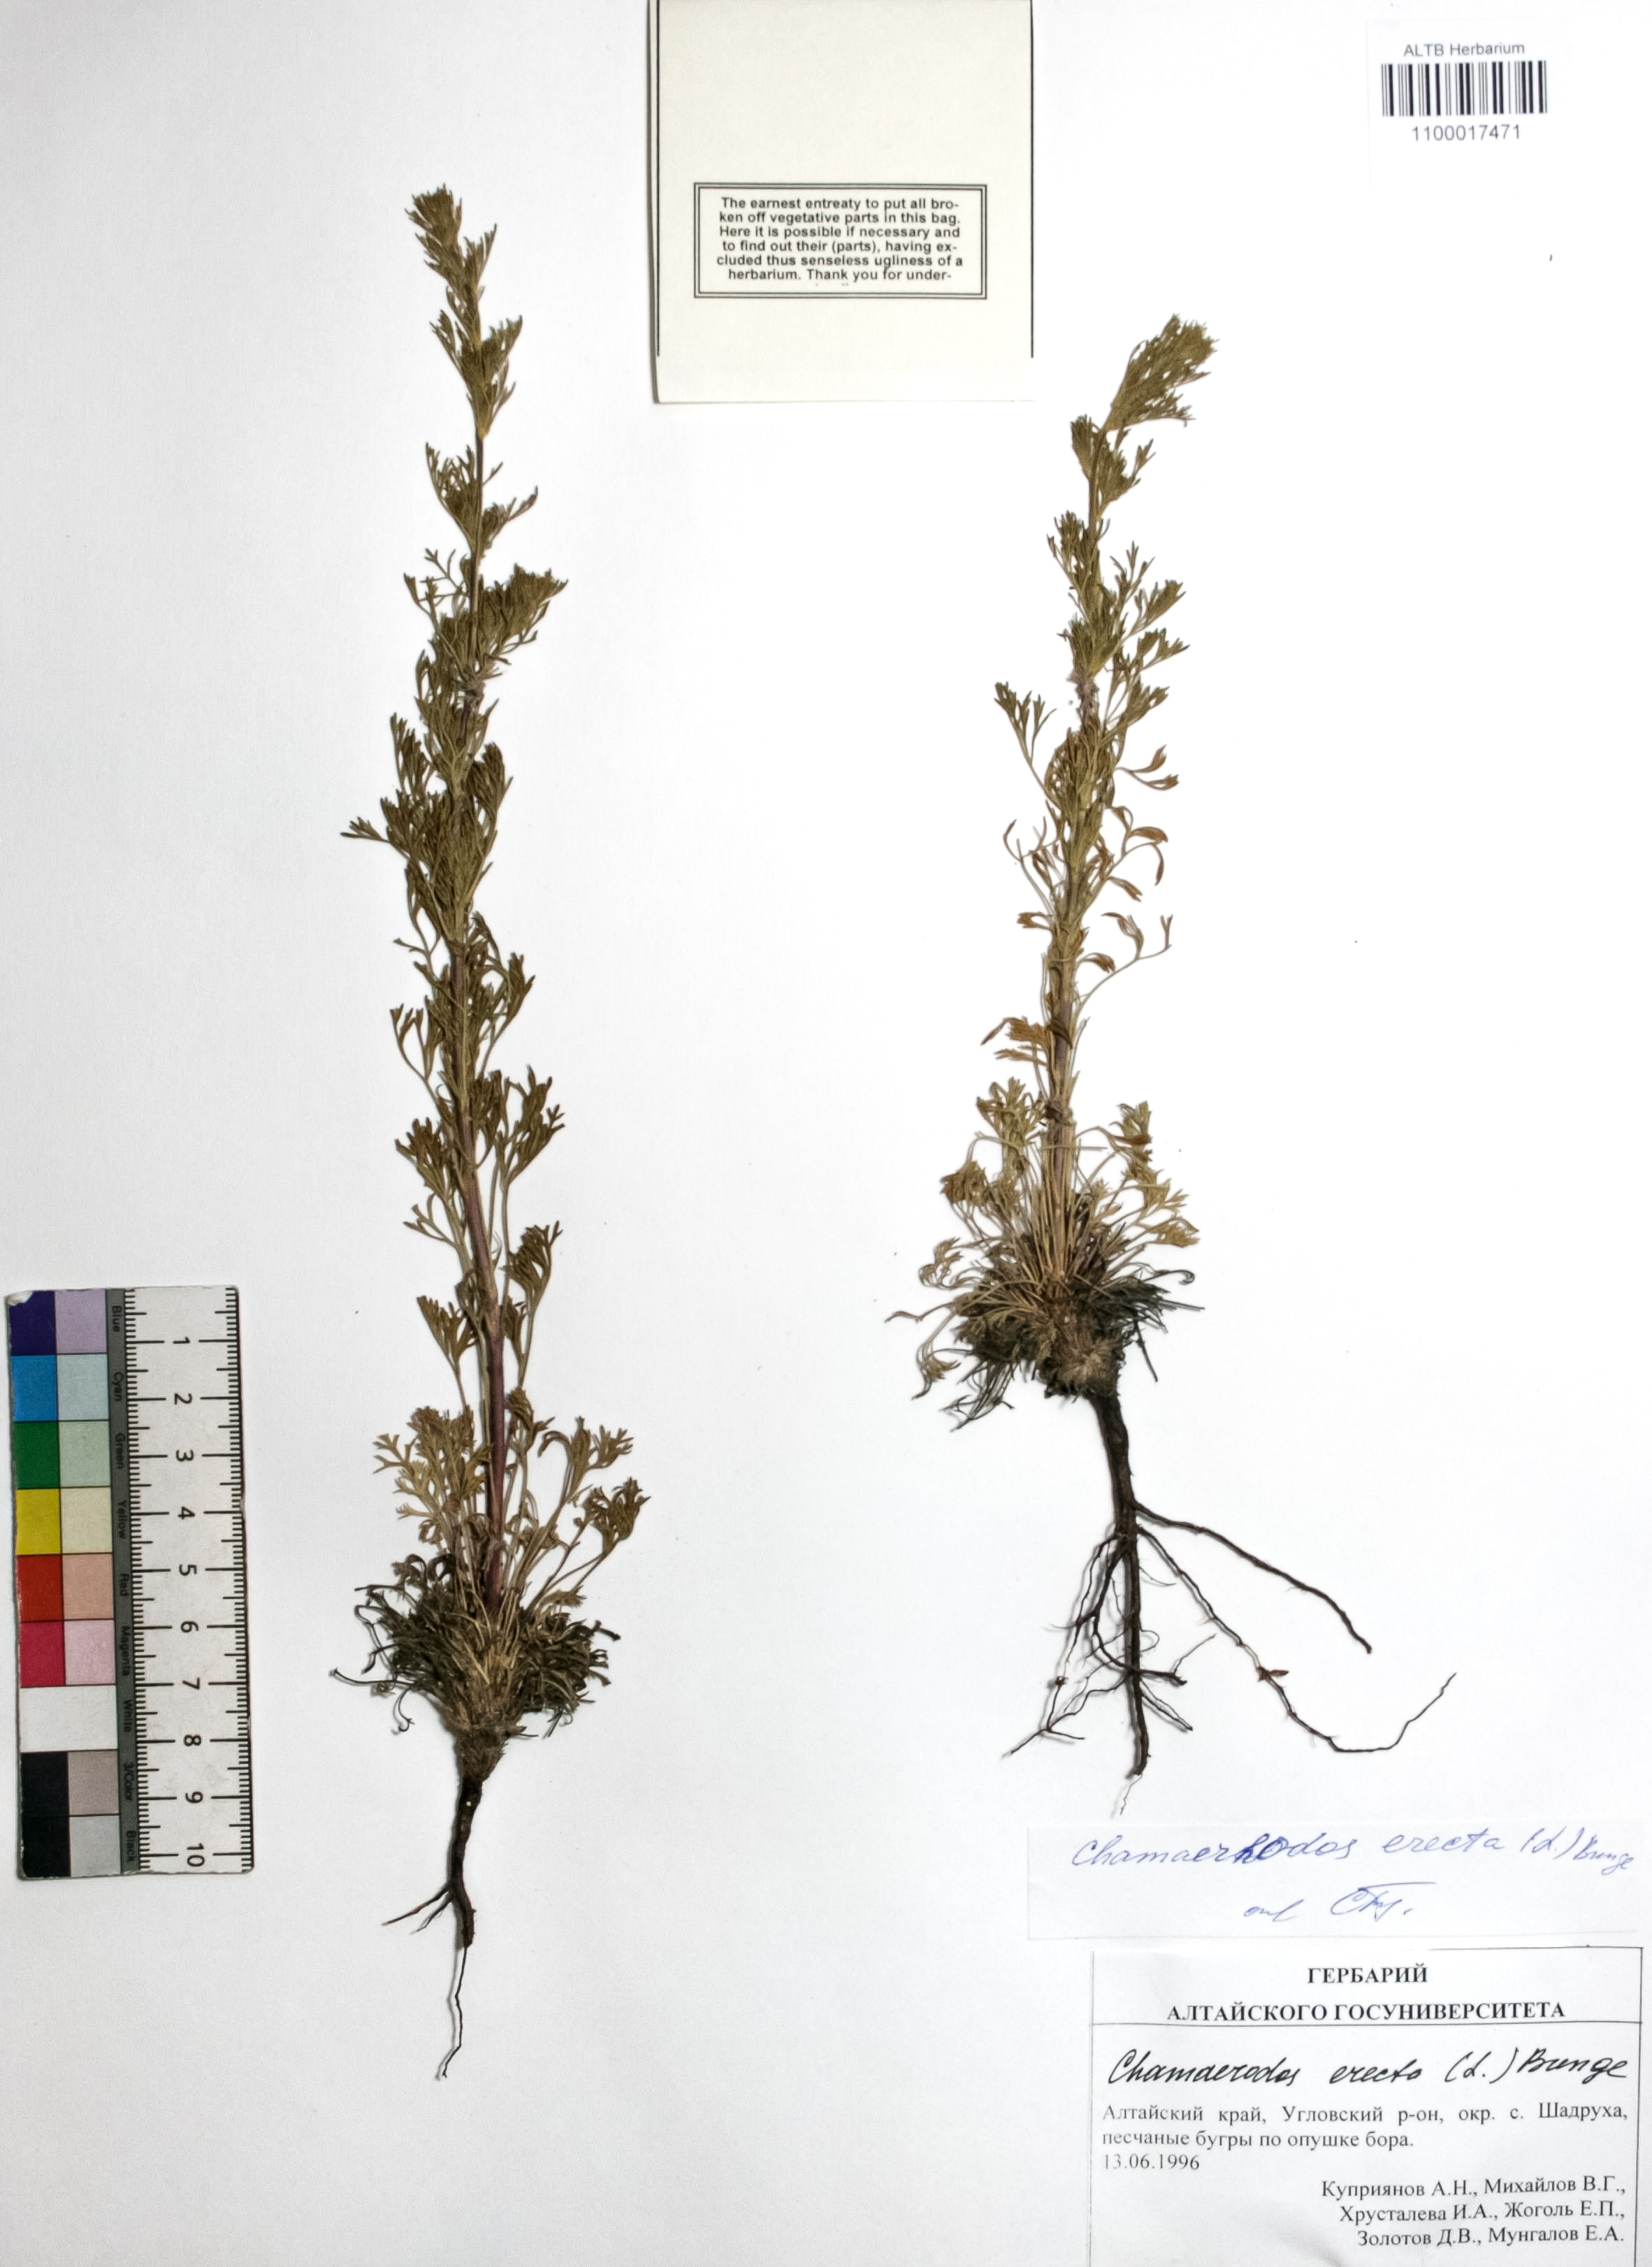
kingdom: Plantae
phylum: Tracheophyta
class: Magnoliopsida
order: Rosales
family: Rosaceae
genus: Chamaerhodos
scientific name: Chamaerhodos erecta
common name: American chamaerhodos
